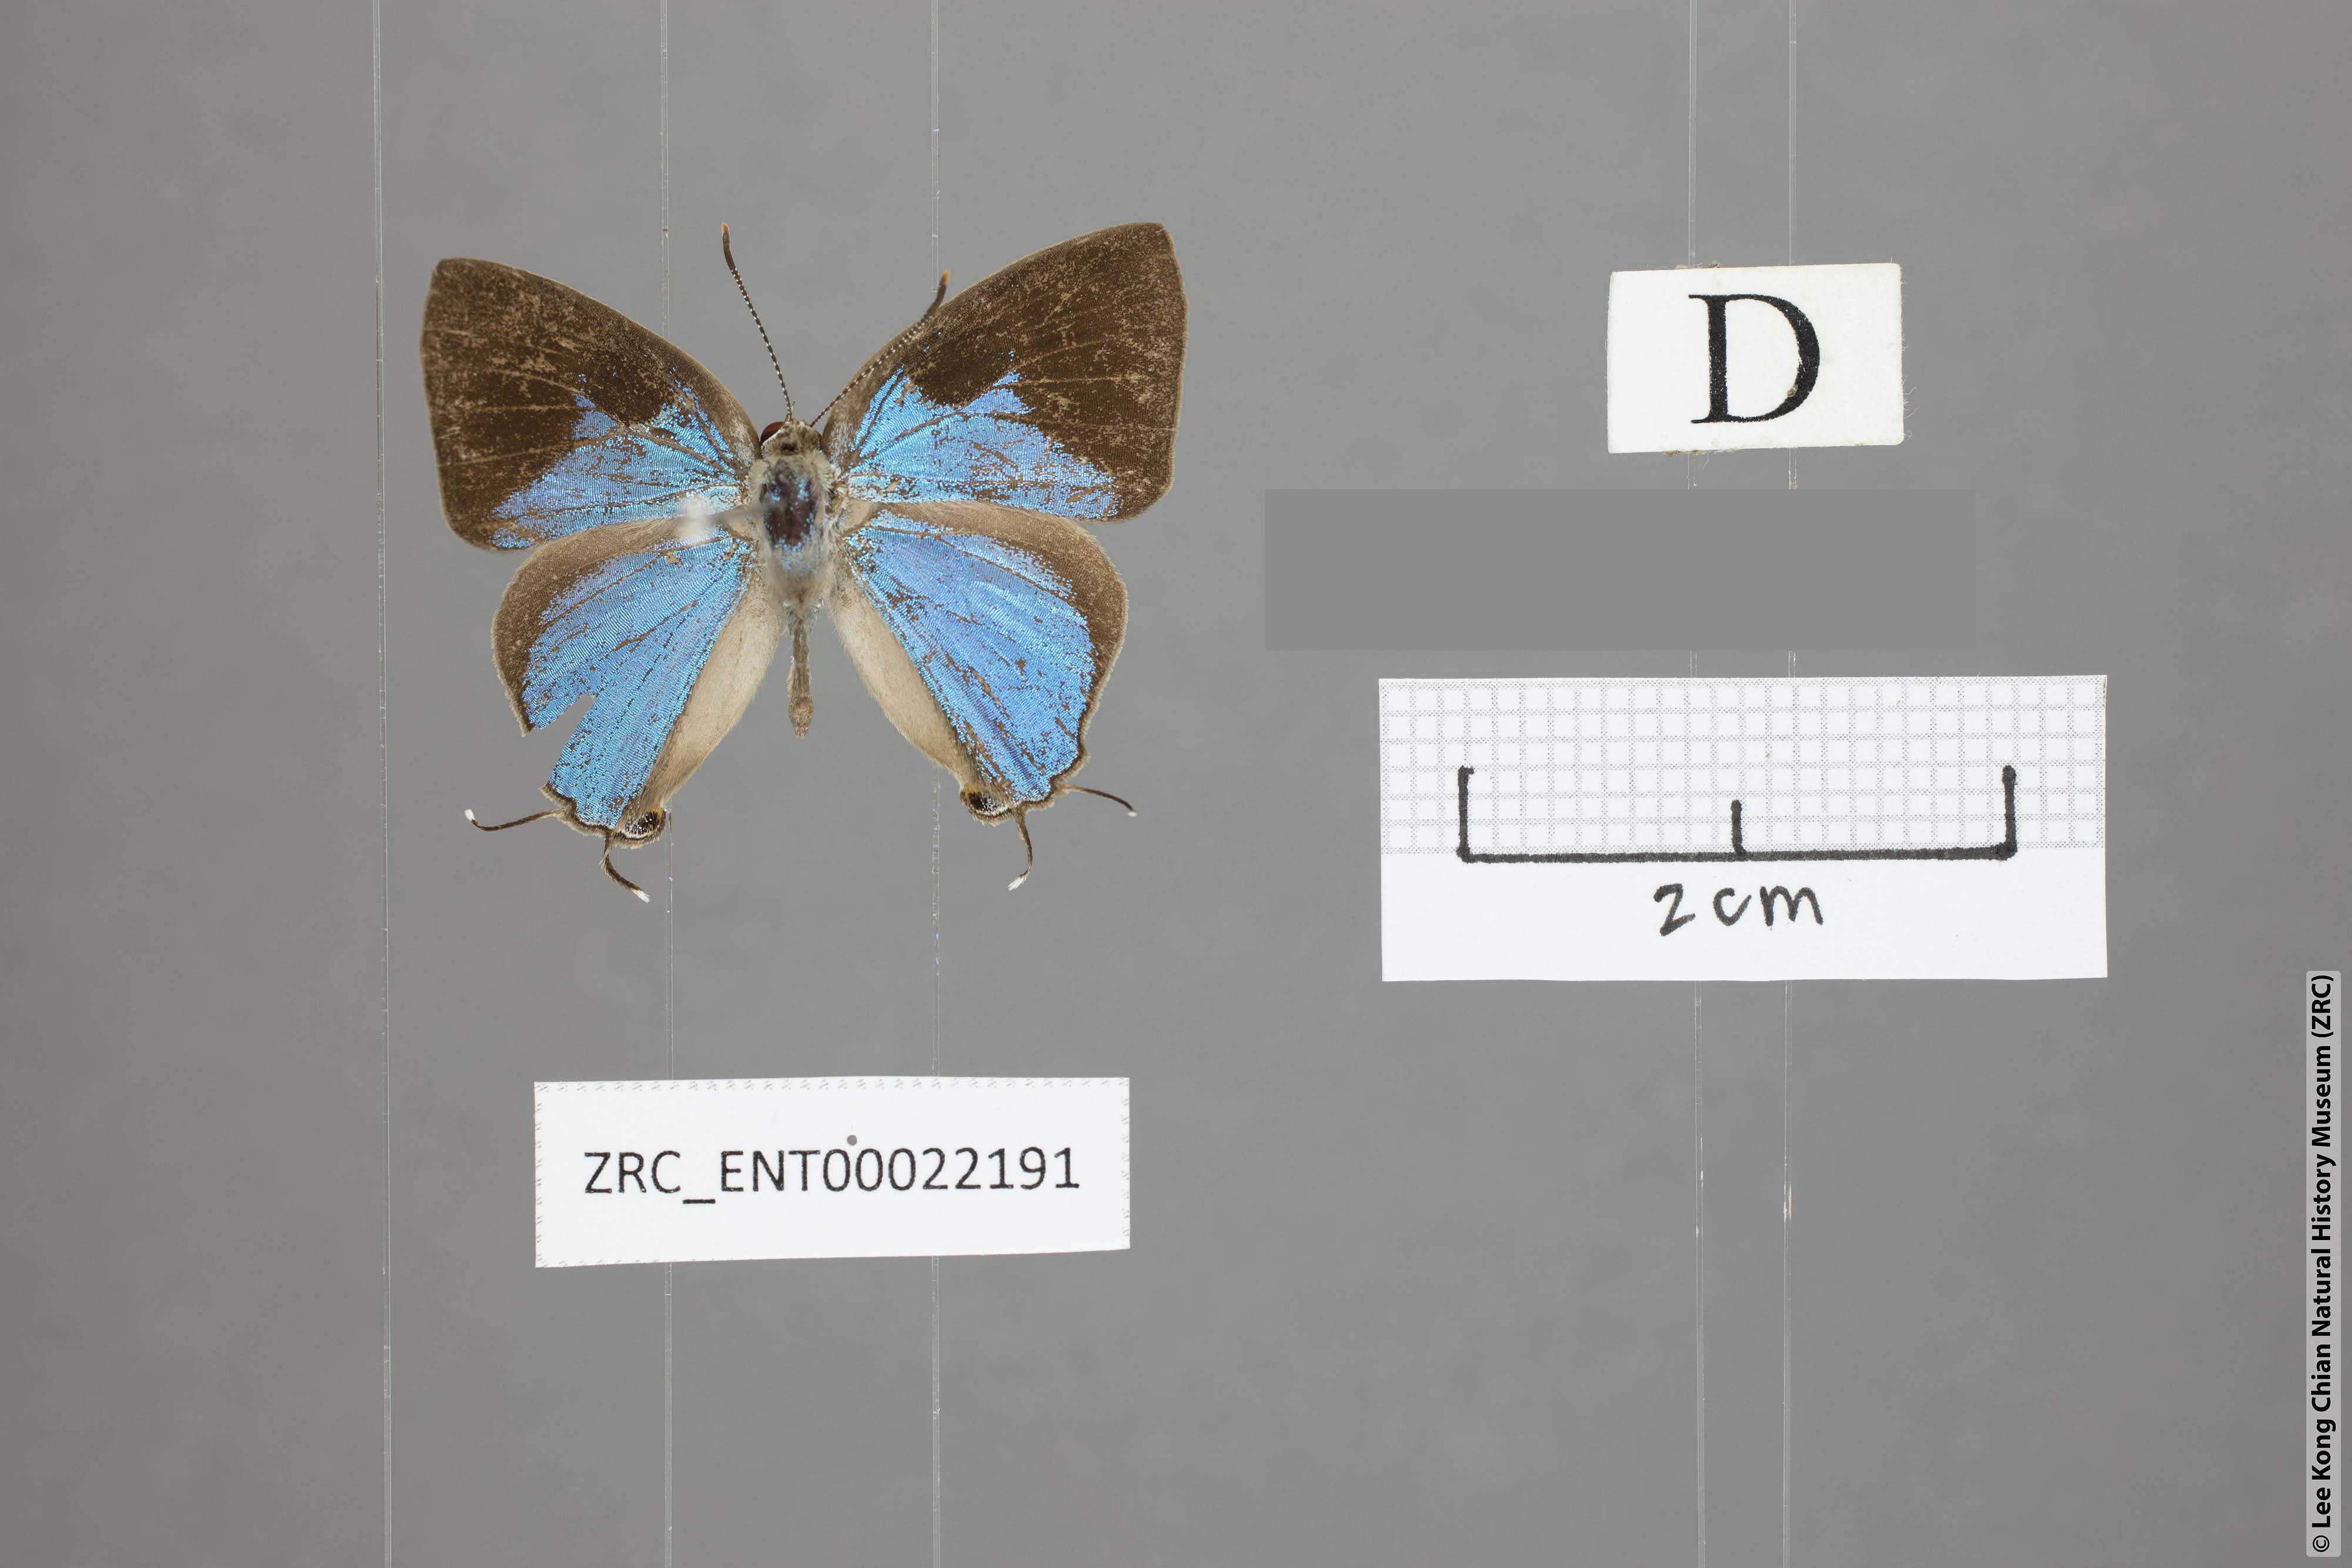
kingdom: Animalia
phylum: Arthropoda
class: Insecta
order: Lepidoptera
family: Lycaenidae
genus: Tajuria
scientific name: Tajuria dominus
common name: Influent royal
